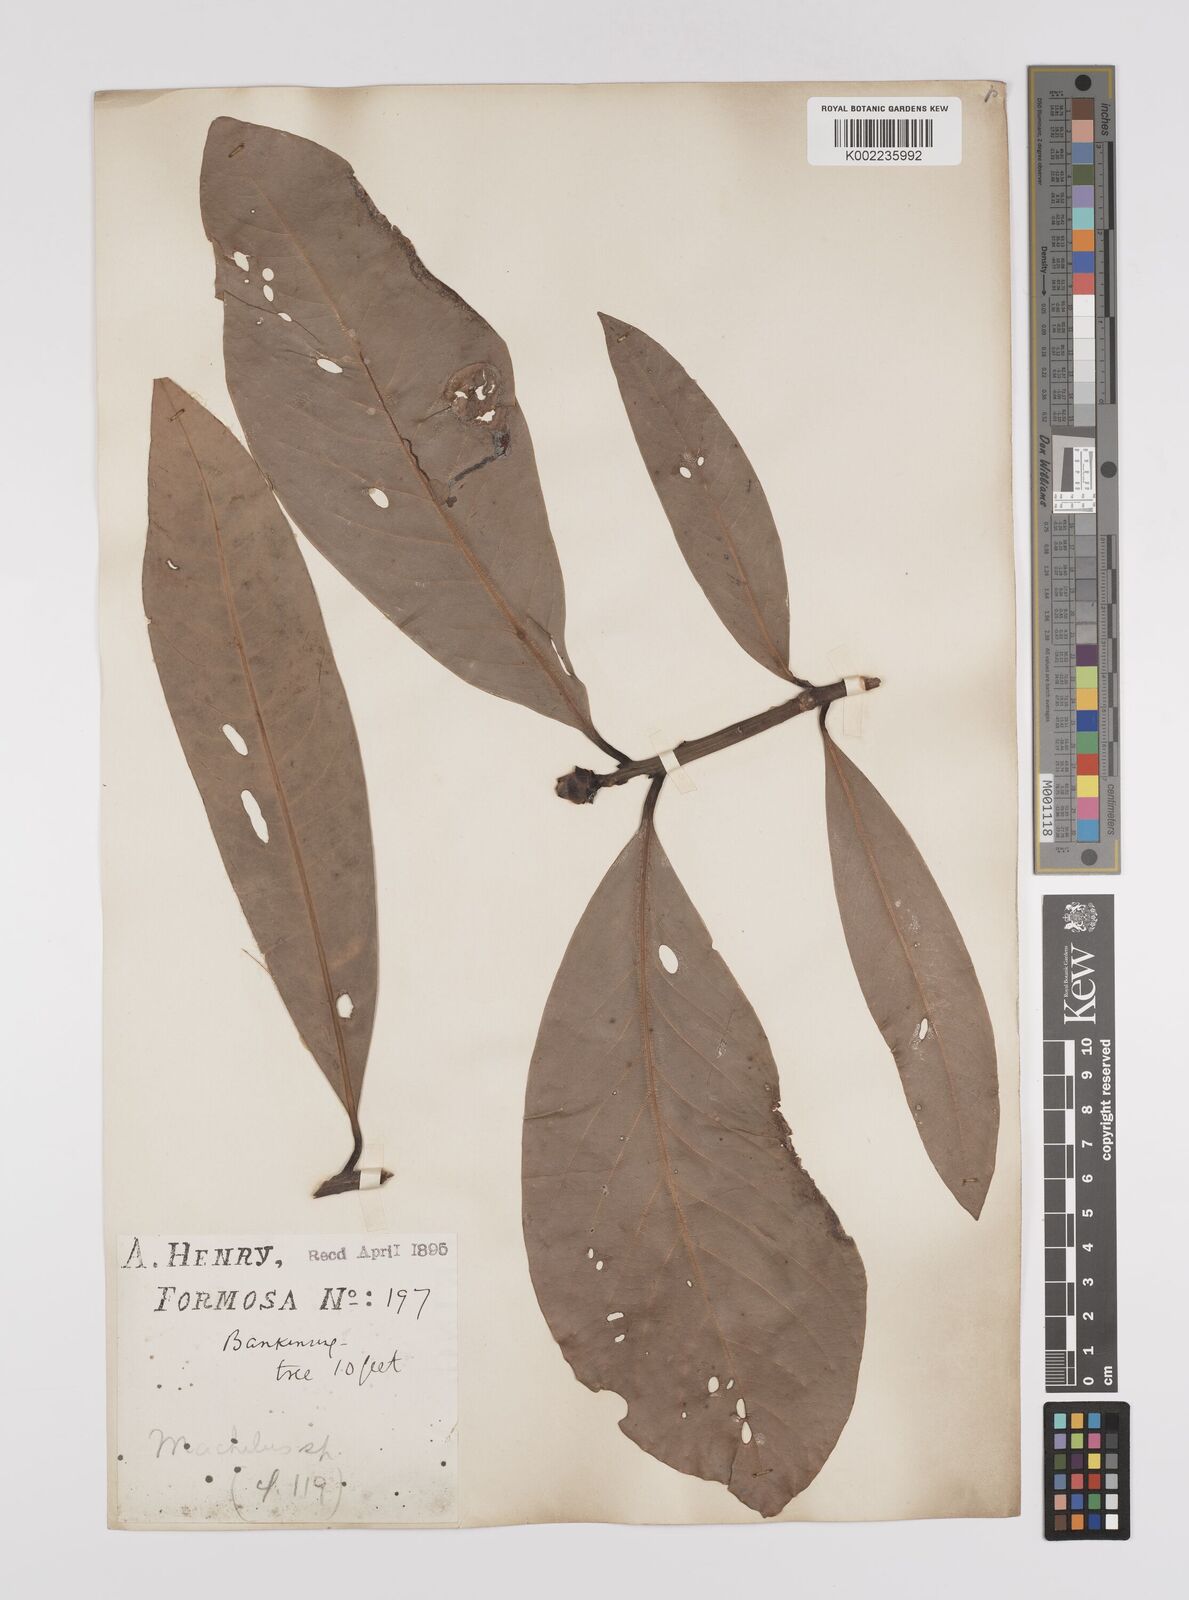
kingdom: Plantae
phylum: Tracheophyta
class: Magnoliopsida
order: Laurales
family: Lauraceae
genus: Persea
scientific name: Persea
